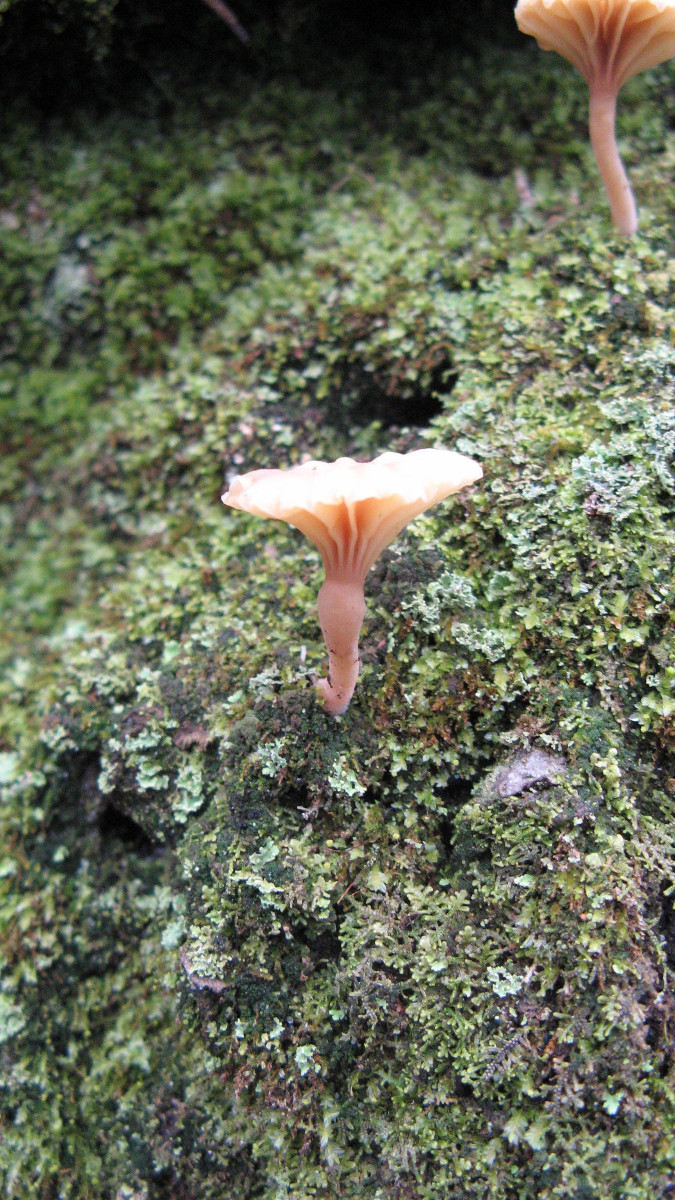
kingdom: Fungi
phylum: Basidiomycota
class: Agaricomycetes
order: Agaricales
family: Hygrophoraceae
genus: Lichenomphalia
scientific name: Lichenomphalia umbellifera
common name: tørve-lavhat
